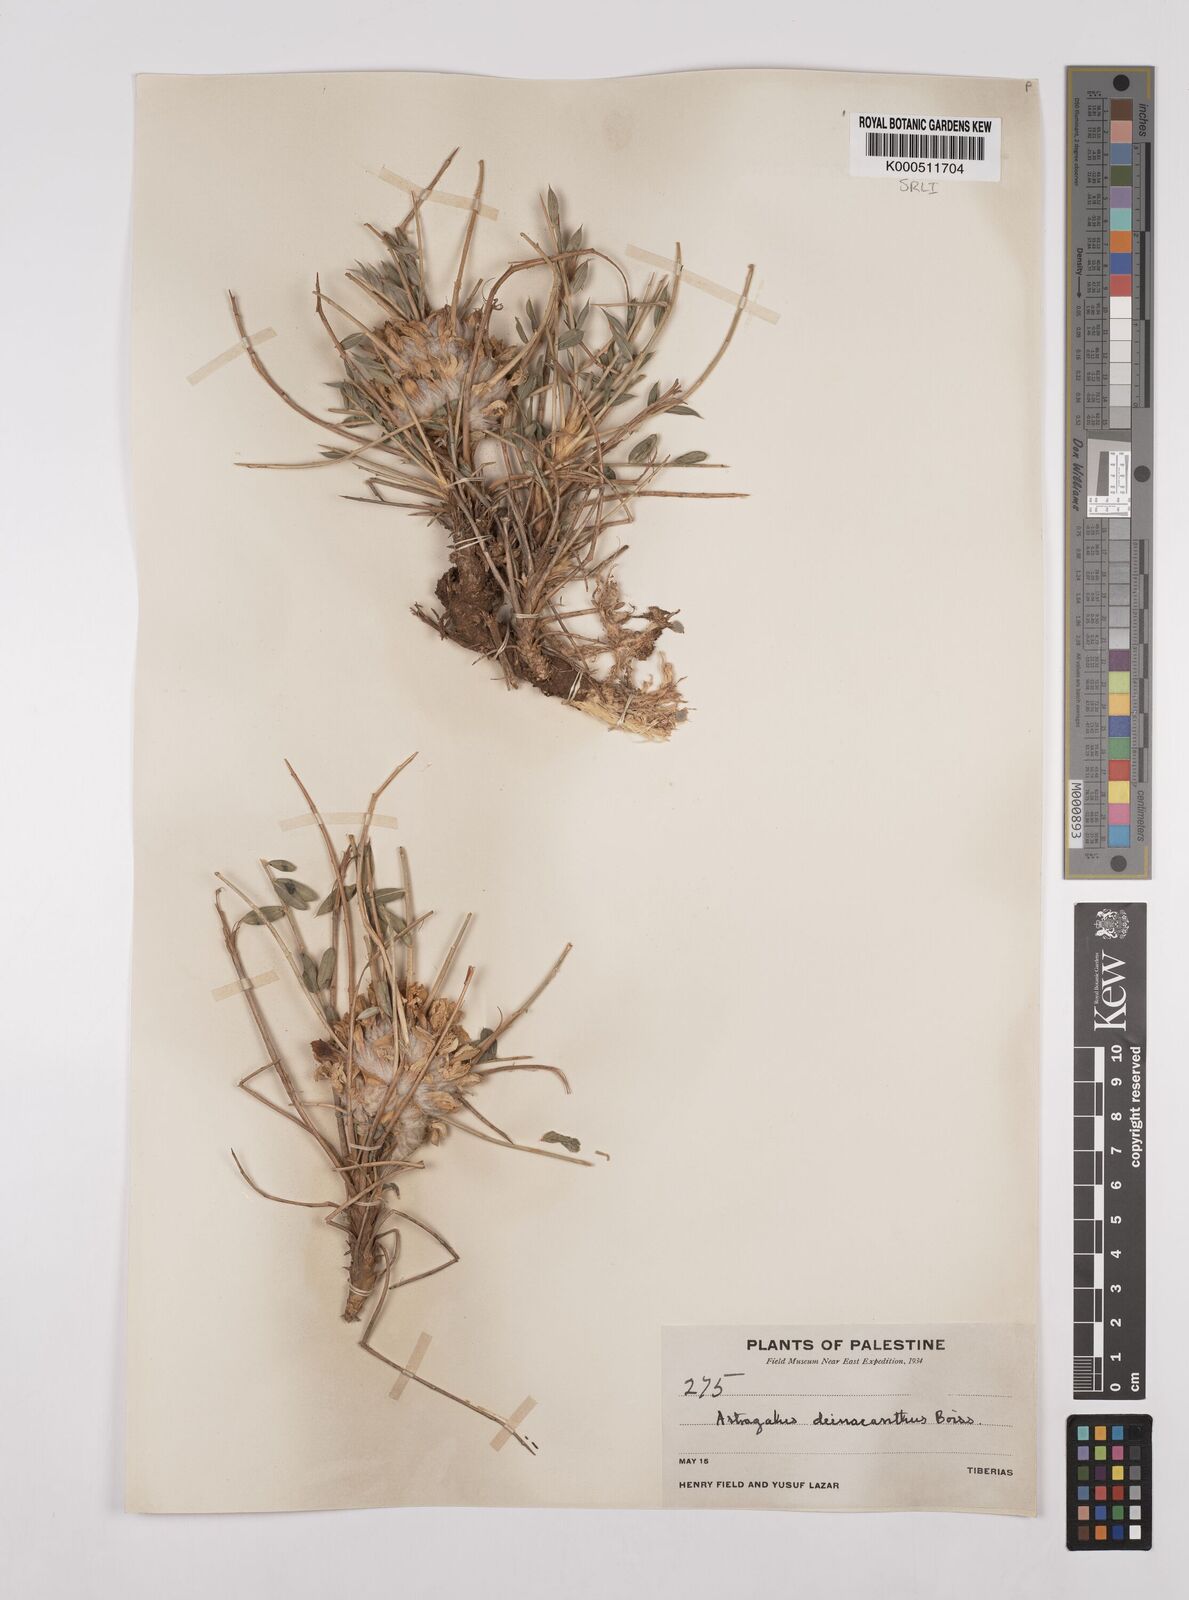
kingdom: Plantae
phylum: Tracheophyta
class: Magnoliopsida
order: Fabales
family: Fabaceae
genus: Astragalus
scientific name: Astragalus oleifolius
